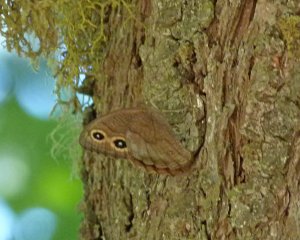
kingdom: Animalia
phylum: Arthropoda
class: Insecta
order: Lepidoptera
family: Nymphalidae
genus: Cercyonis
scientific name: Cercyonis pegala
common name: Common Wood-Nymph
